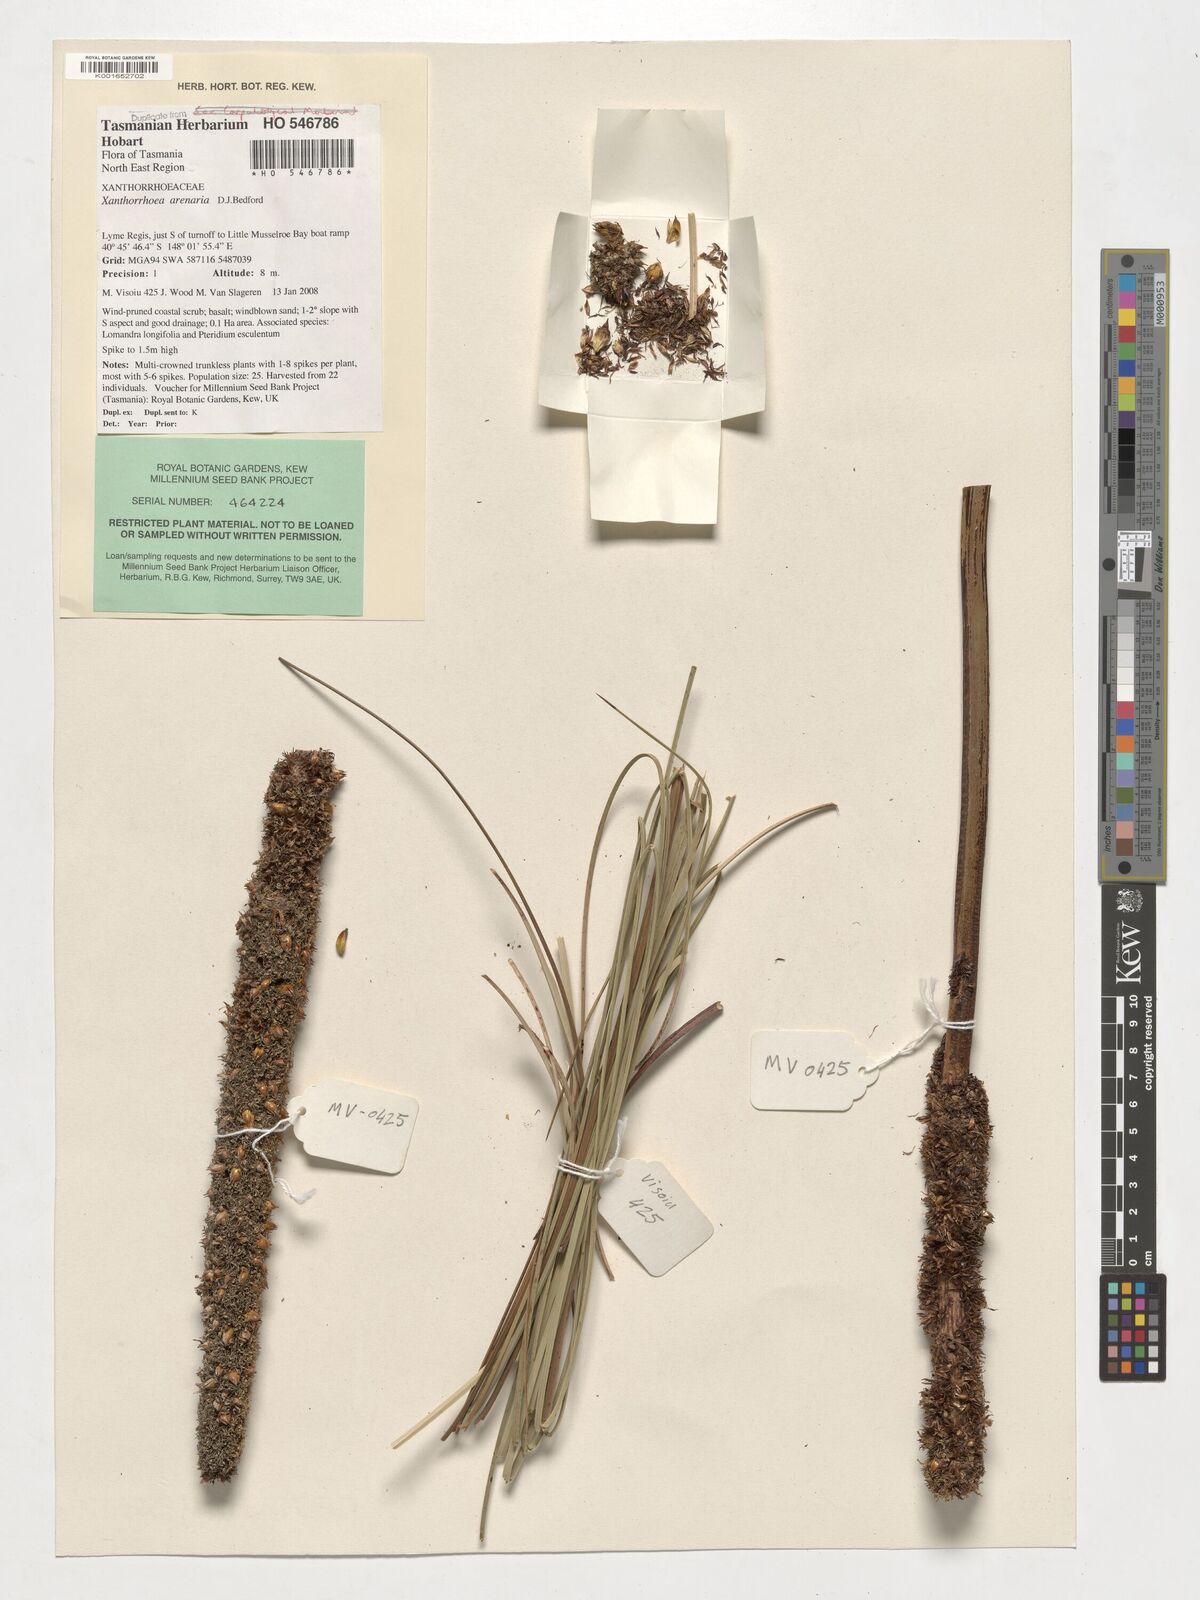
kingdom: Plantae
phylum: Tracheophyta
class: Liliopsida
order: Asparagales
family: Asphodelaceae
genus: Xanthorrhoea
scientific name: Xanthorrhoea arenaria
